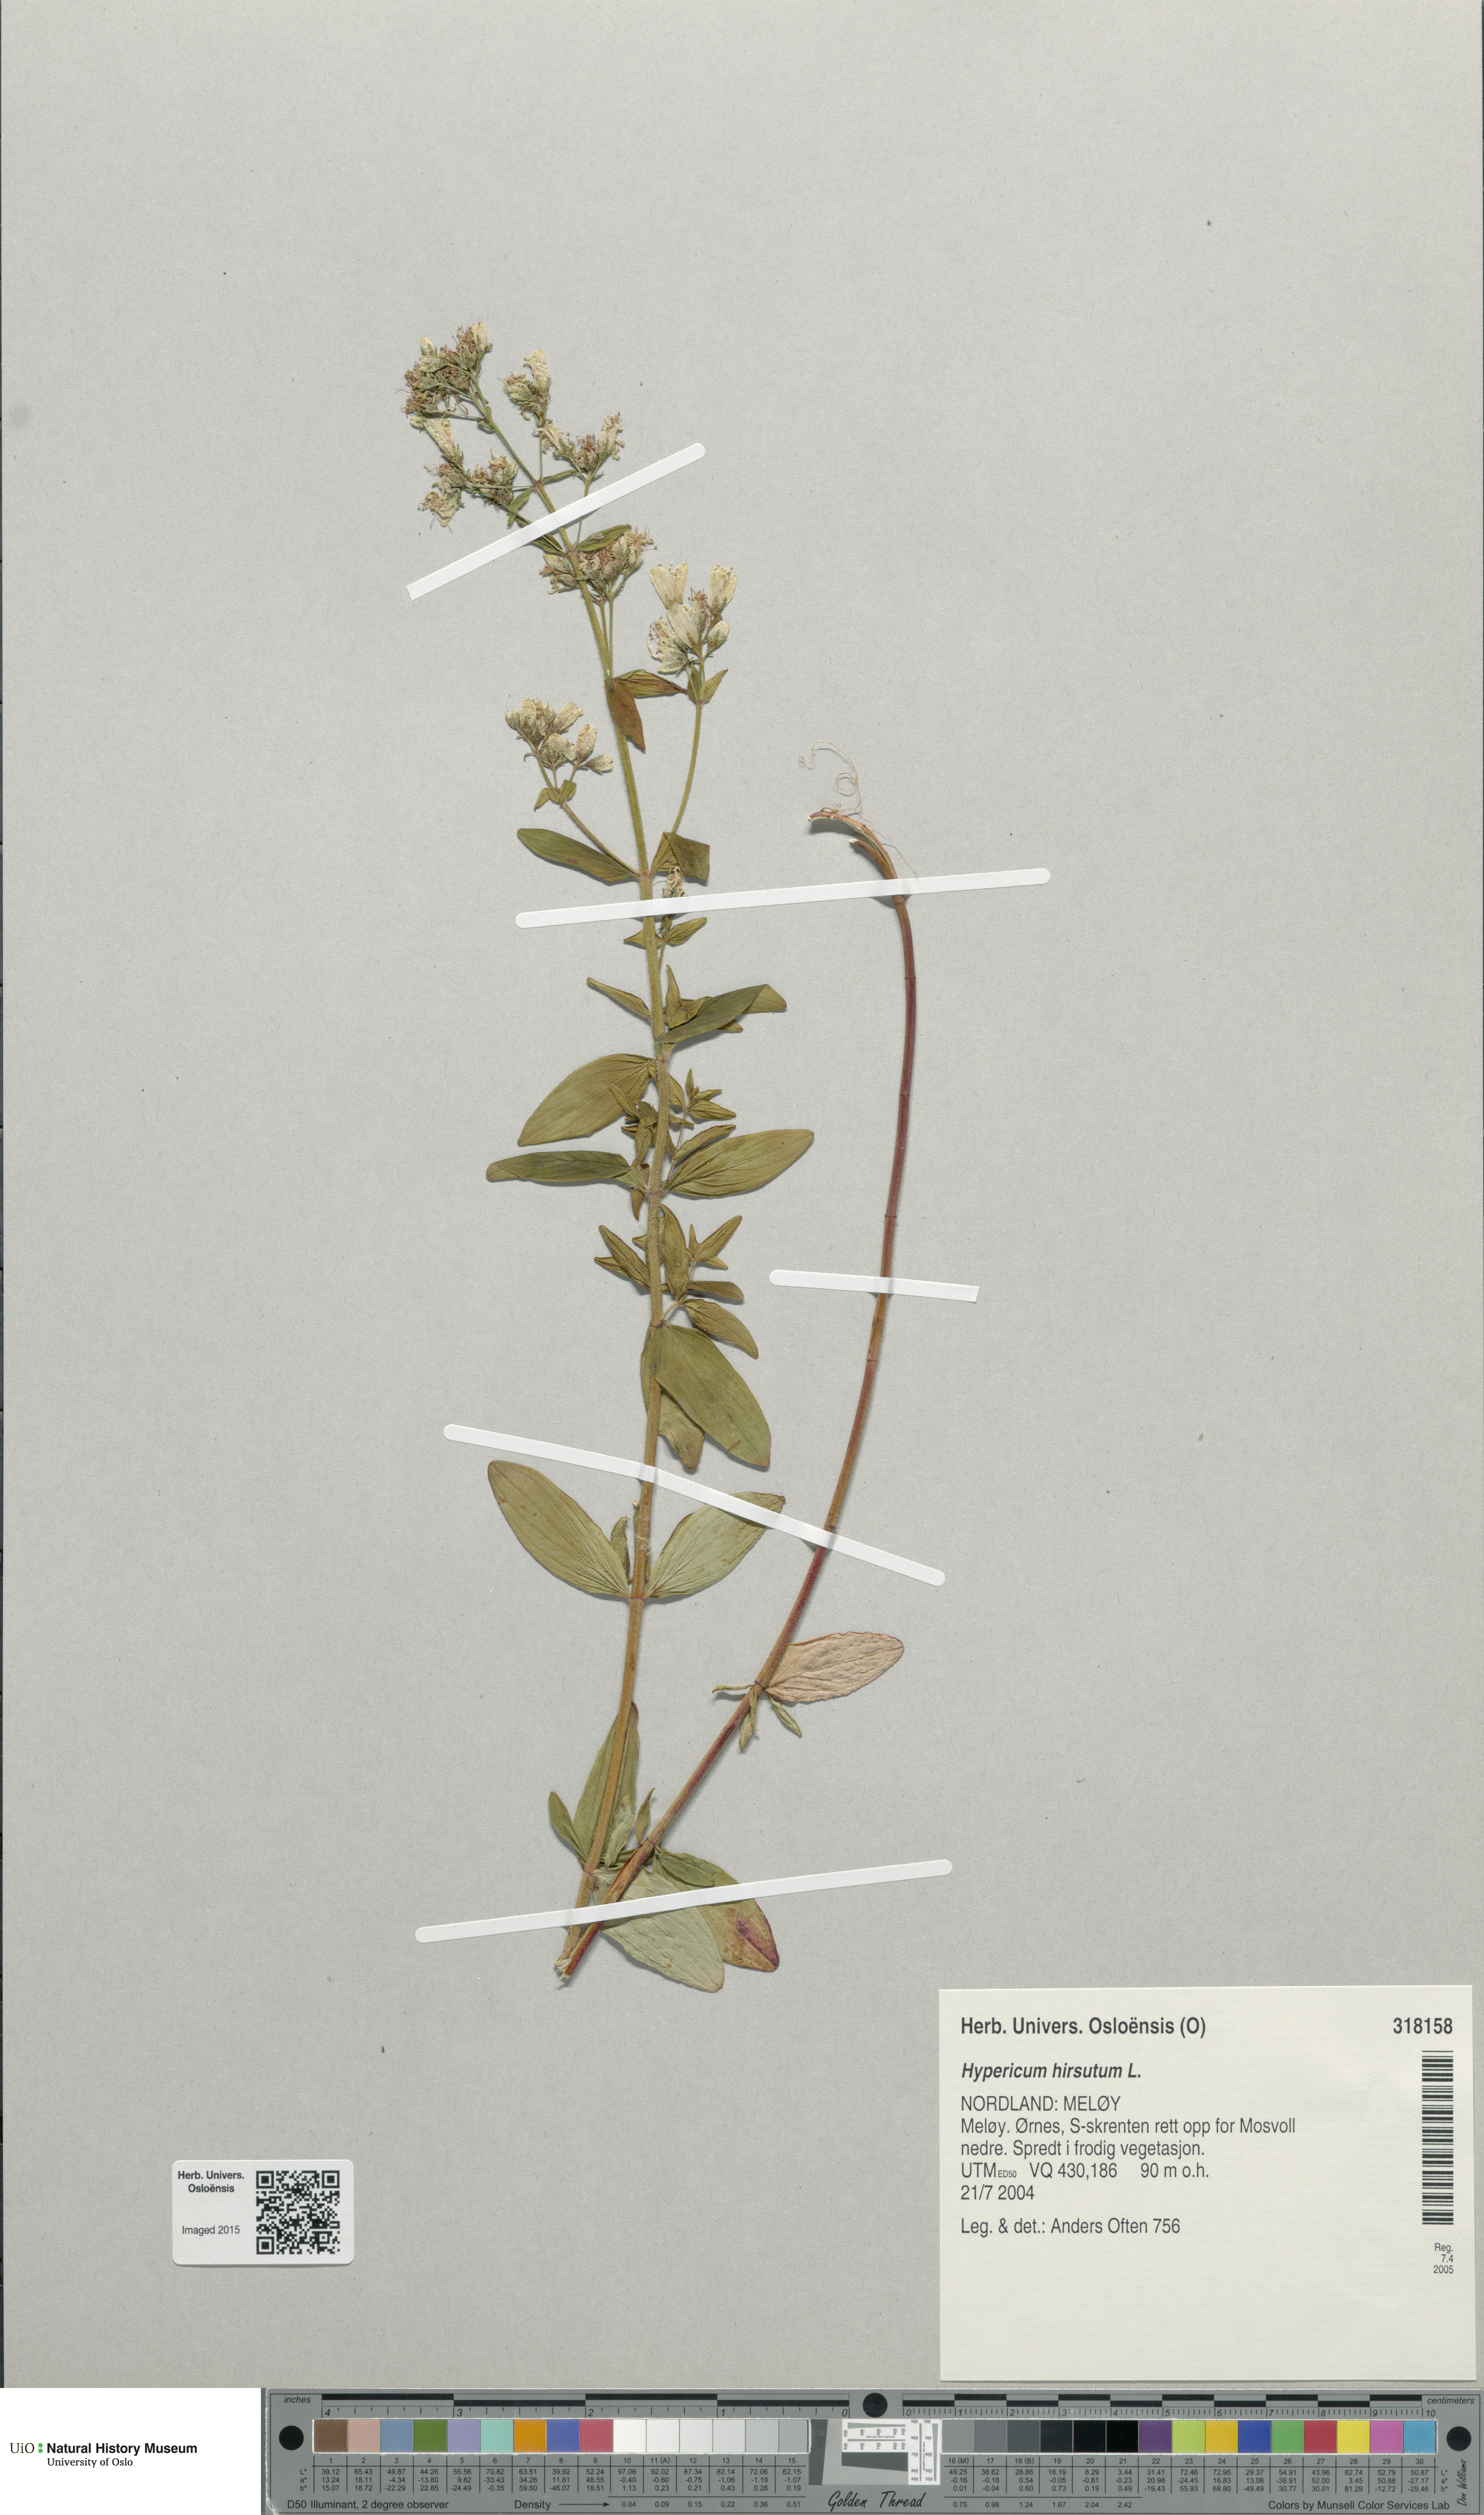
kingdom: Plantae
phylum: Tracheophyta
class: Magnoliopsida
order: Malpighiales
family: Hypericaceae
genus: Hypericum
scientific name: Hypericum hirsutum
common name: Hairy st. john's-wort
